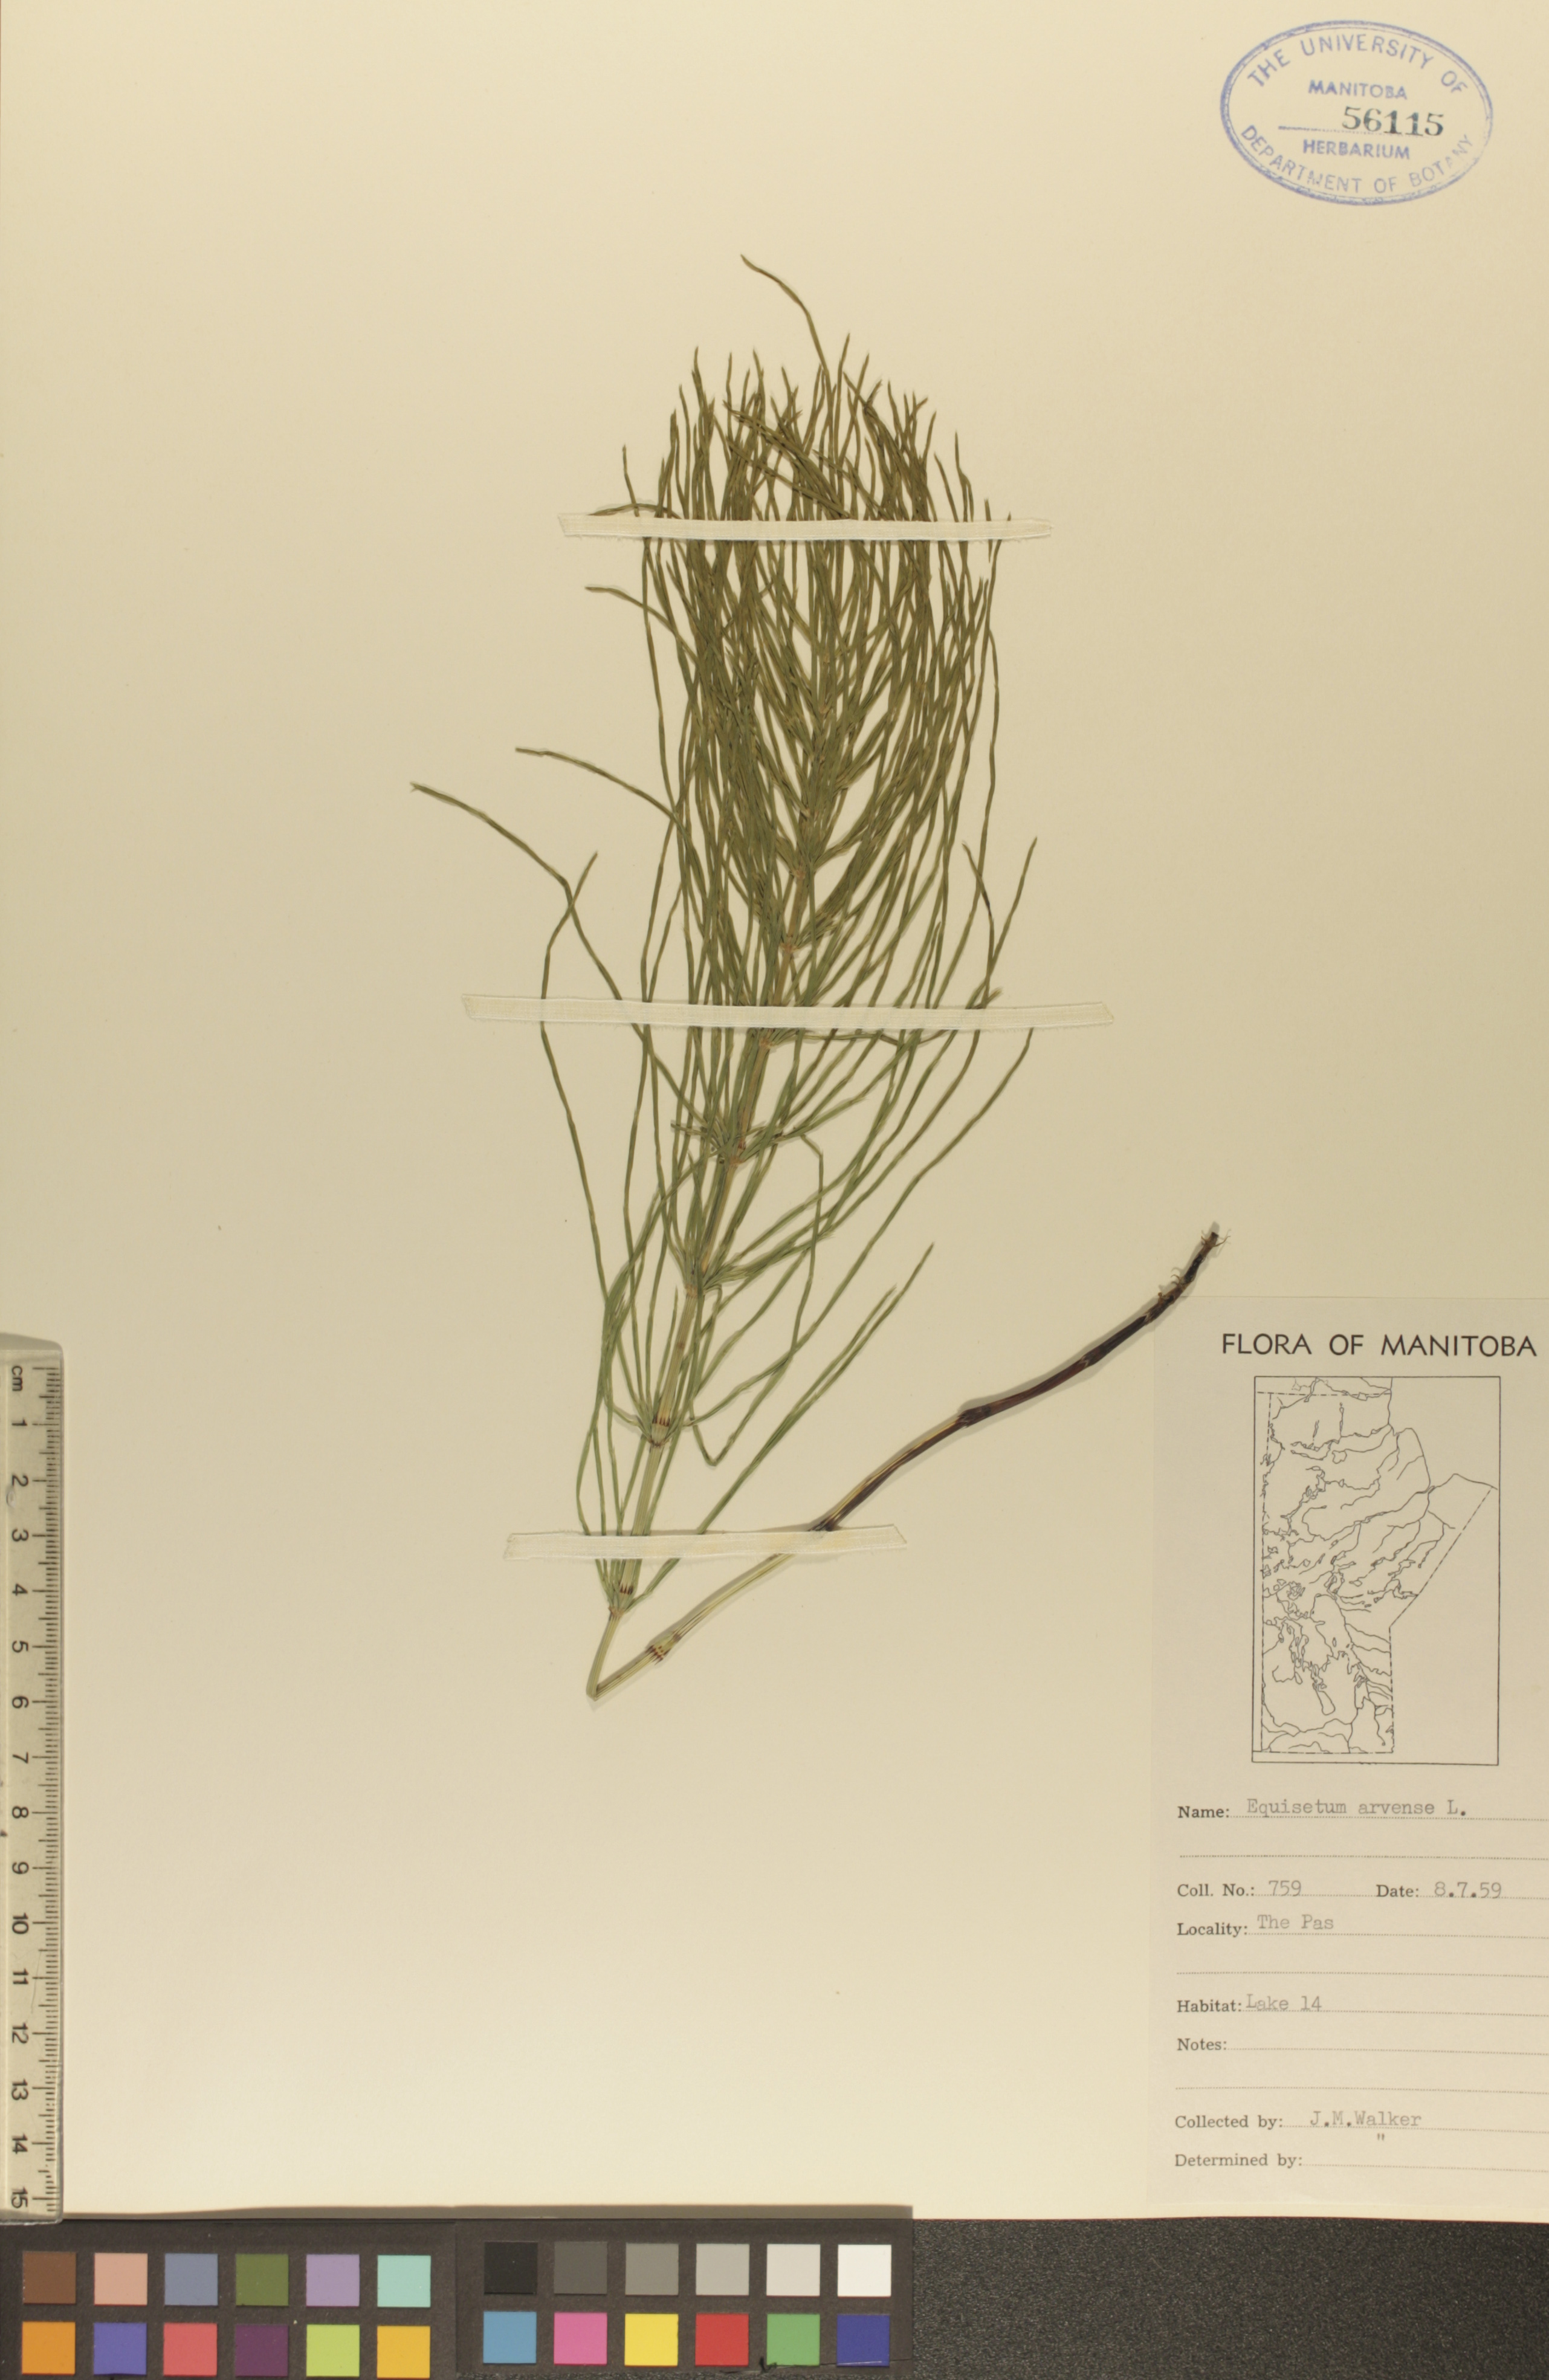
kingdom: Plantae
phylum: Tracheophyta
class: Polypodiopsida
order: Equisetales
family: Equisetaceae
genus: Equisetum
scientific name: Equisetum arvense
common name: Field horsetail
